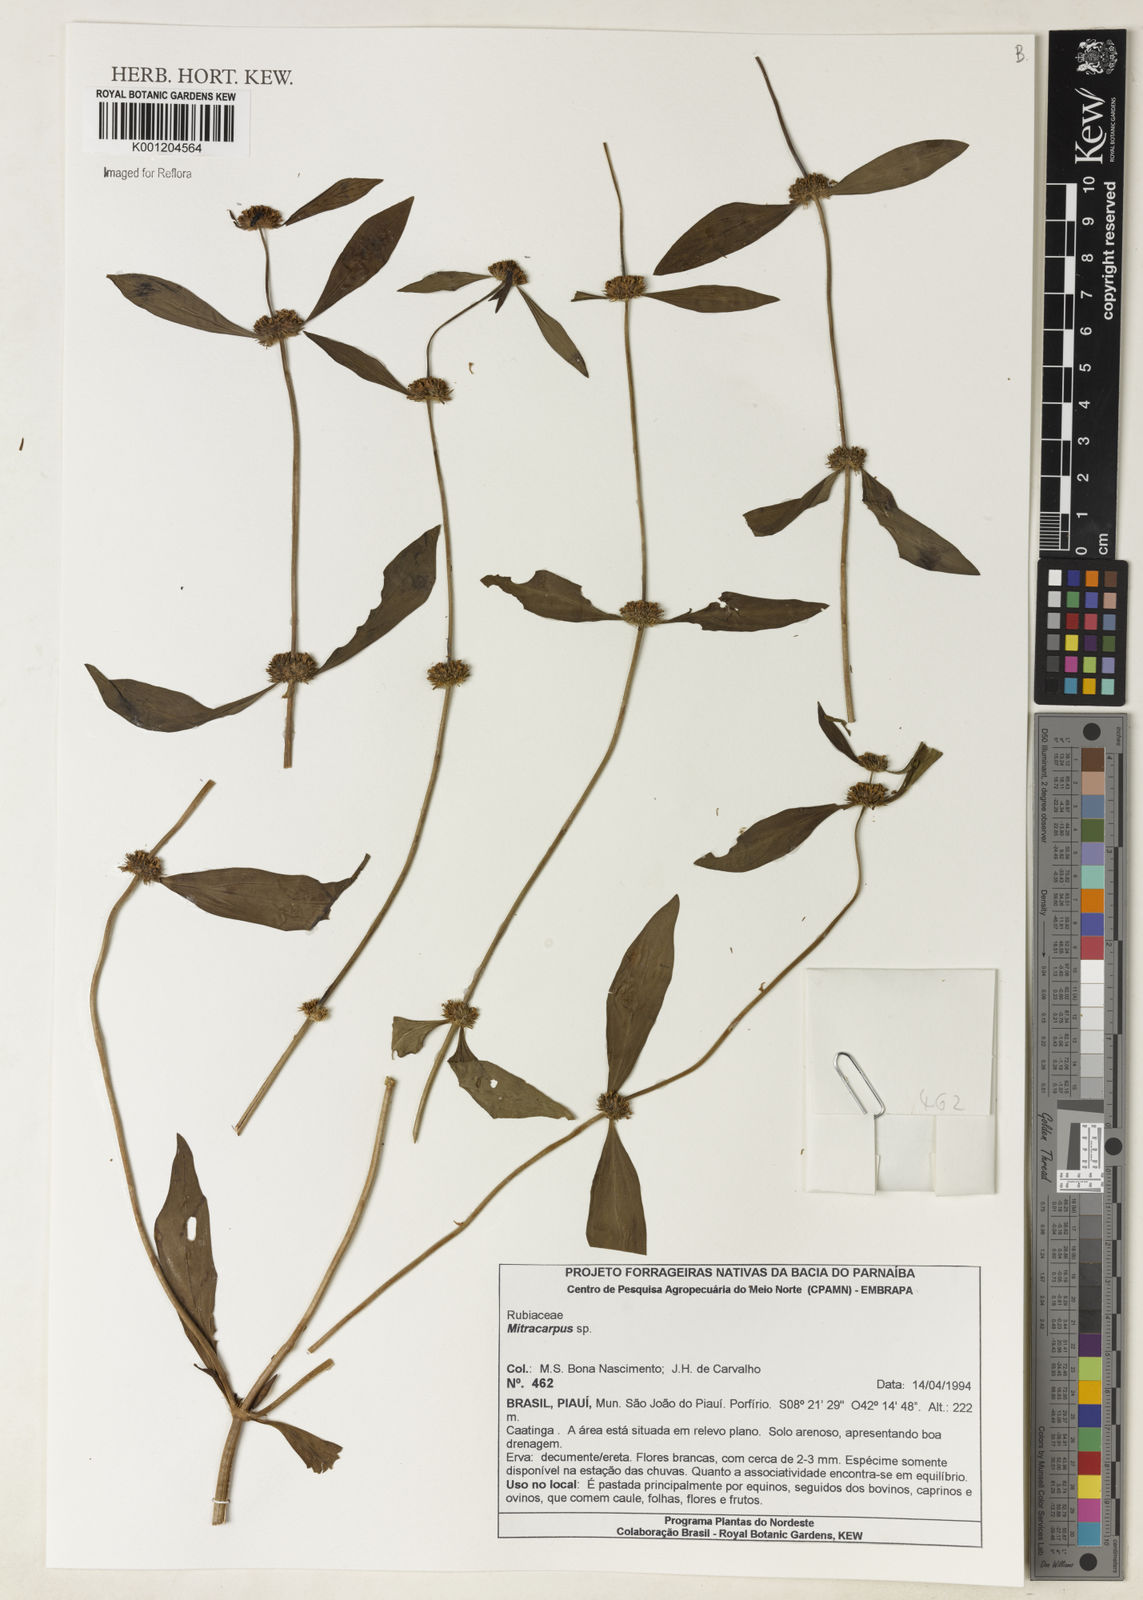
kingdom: Plantae
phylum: Tracheophyta
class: Magnoliopsida
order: Gentianales
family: Rubiaceae
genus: Mitracarpus
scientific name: Mitracarpus
